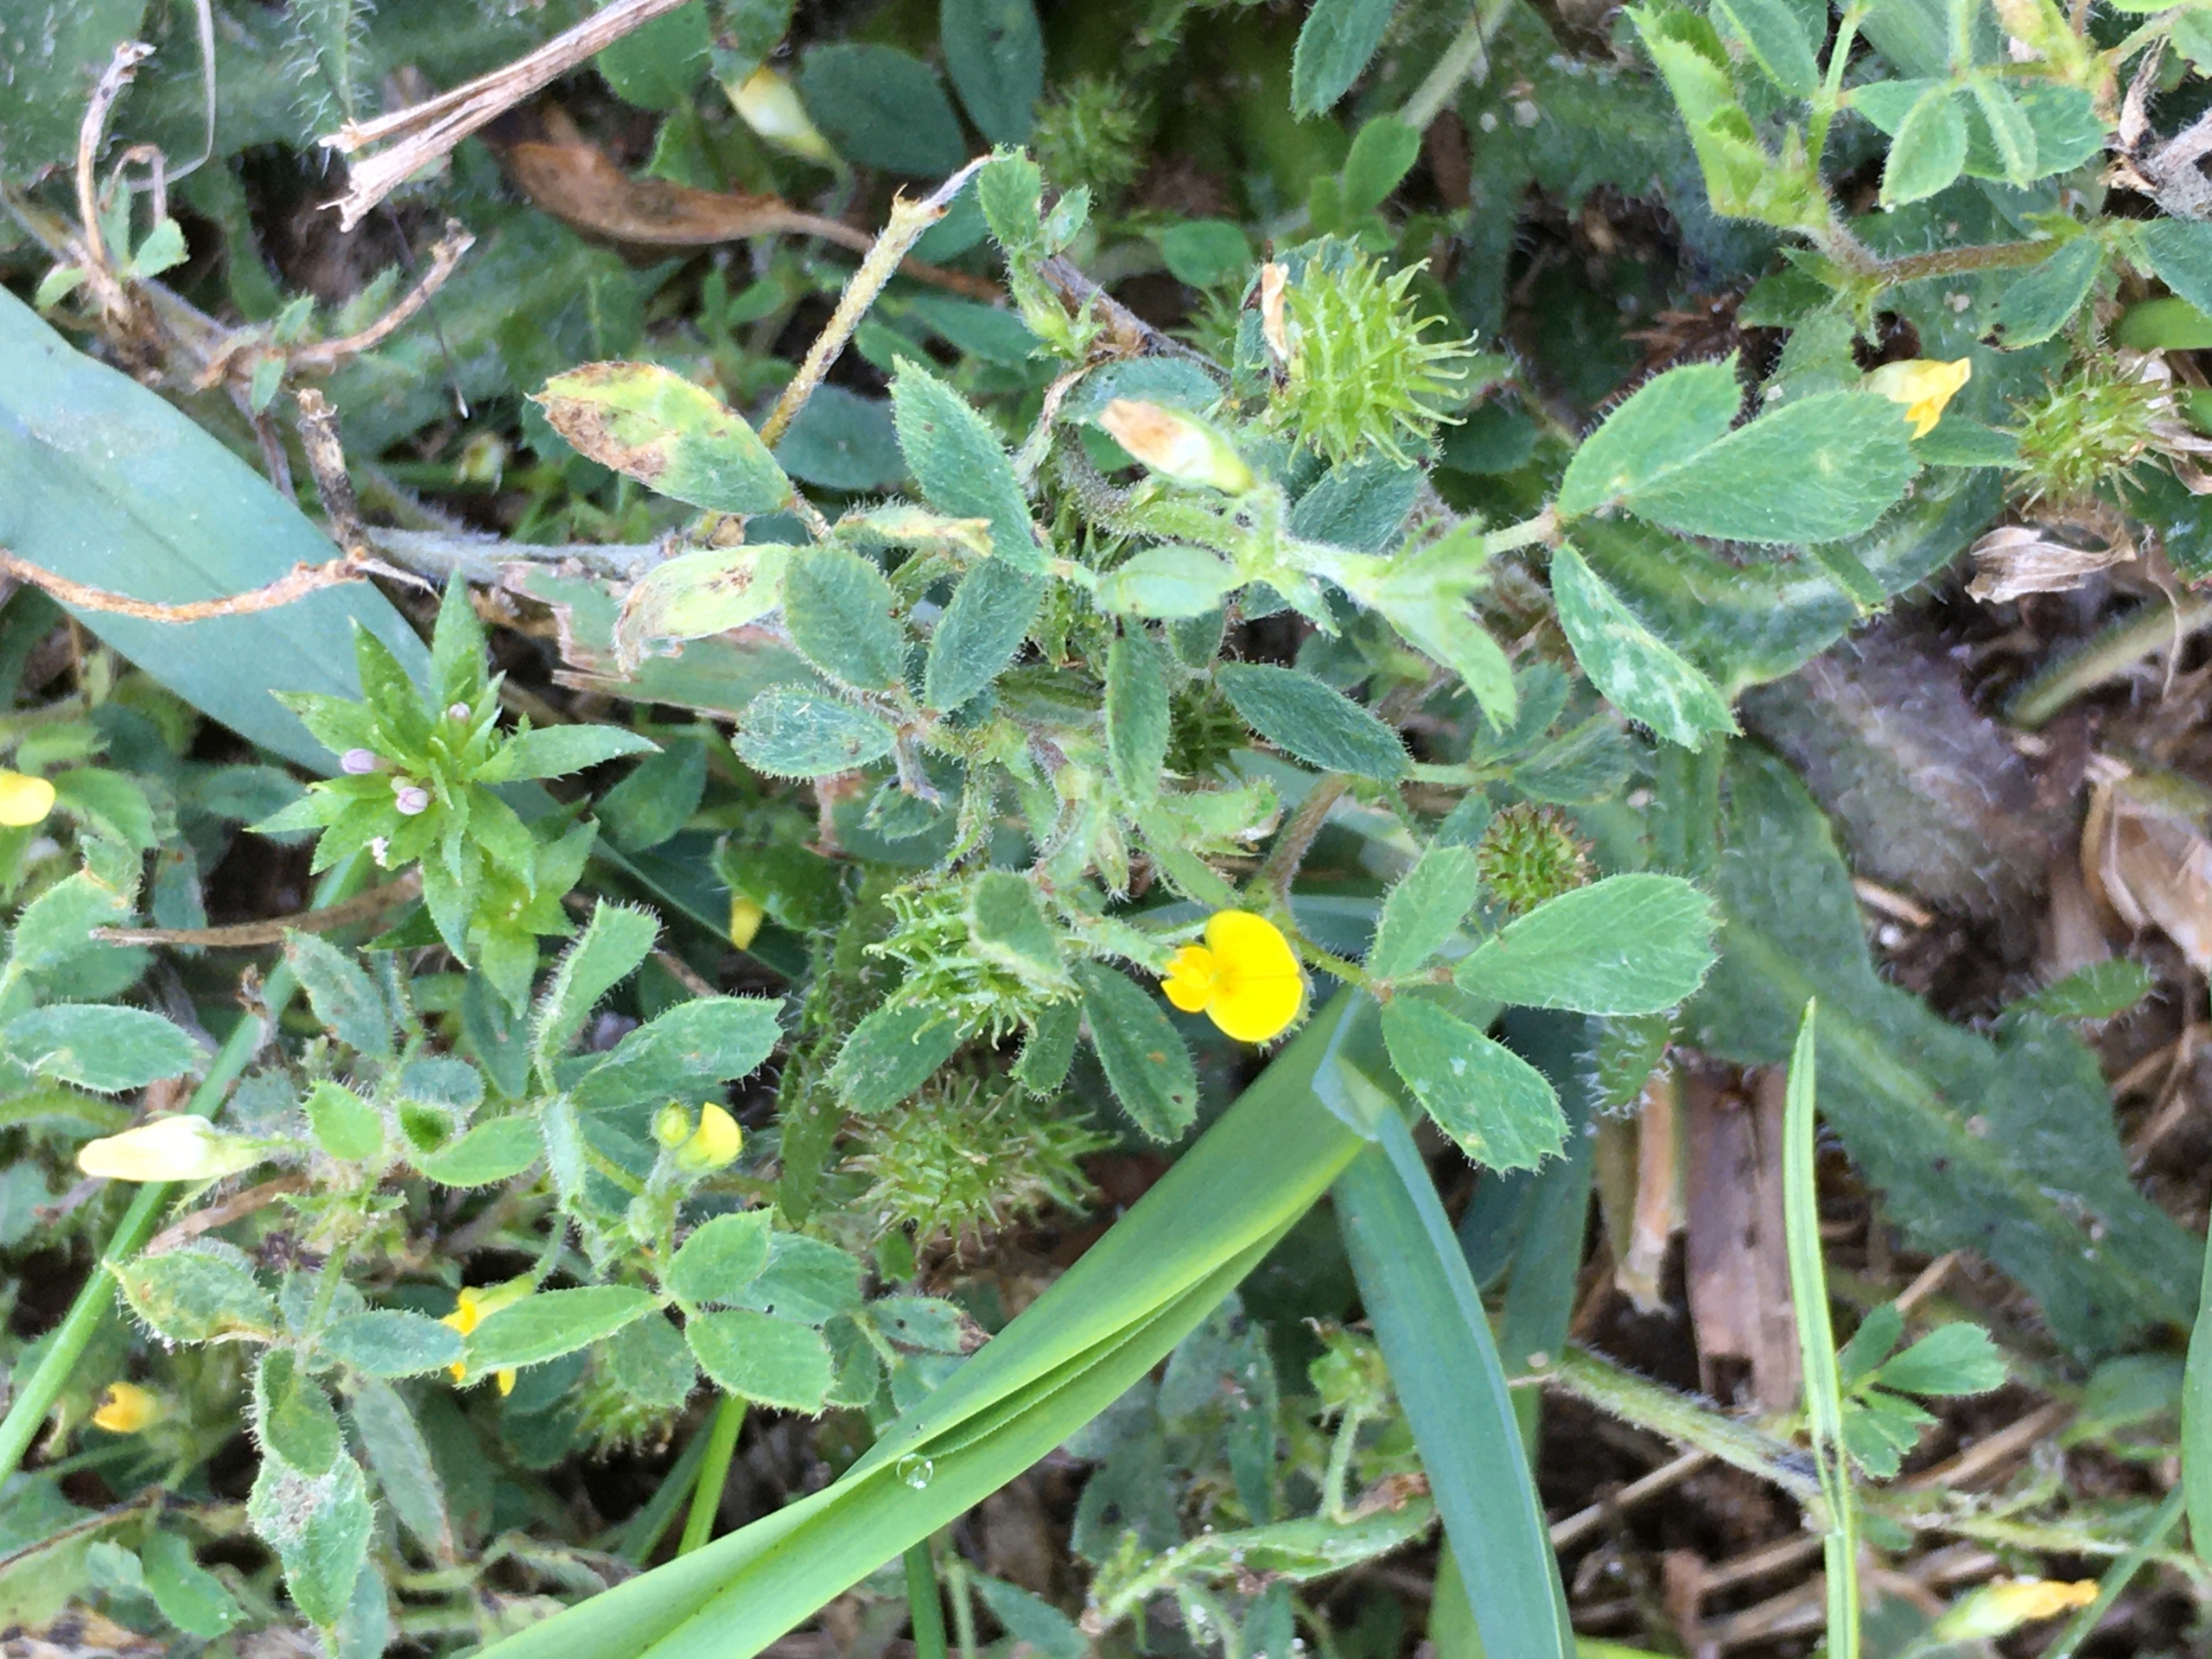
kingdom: Plantae
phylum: Tracheophyta
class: Magnoliopsida
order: Fabales
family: Fabaceae
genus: Medicago
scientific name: Medicago minima
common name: Liden sneglebælg
